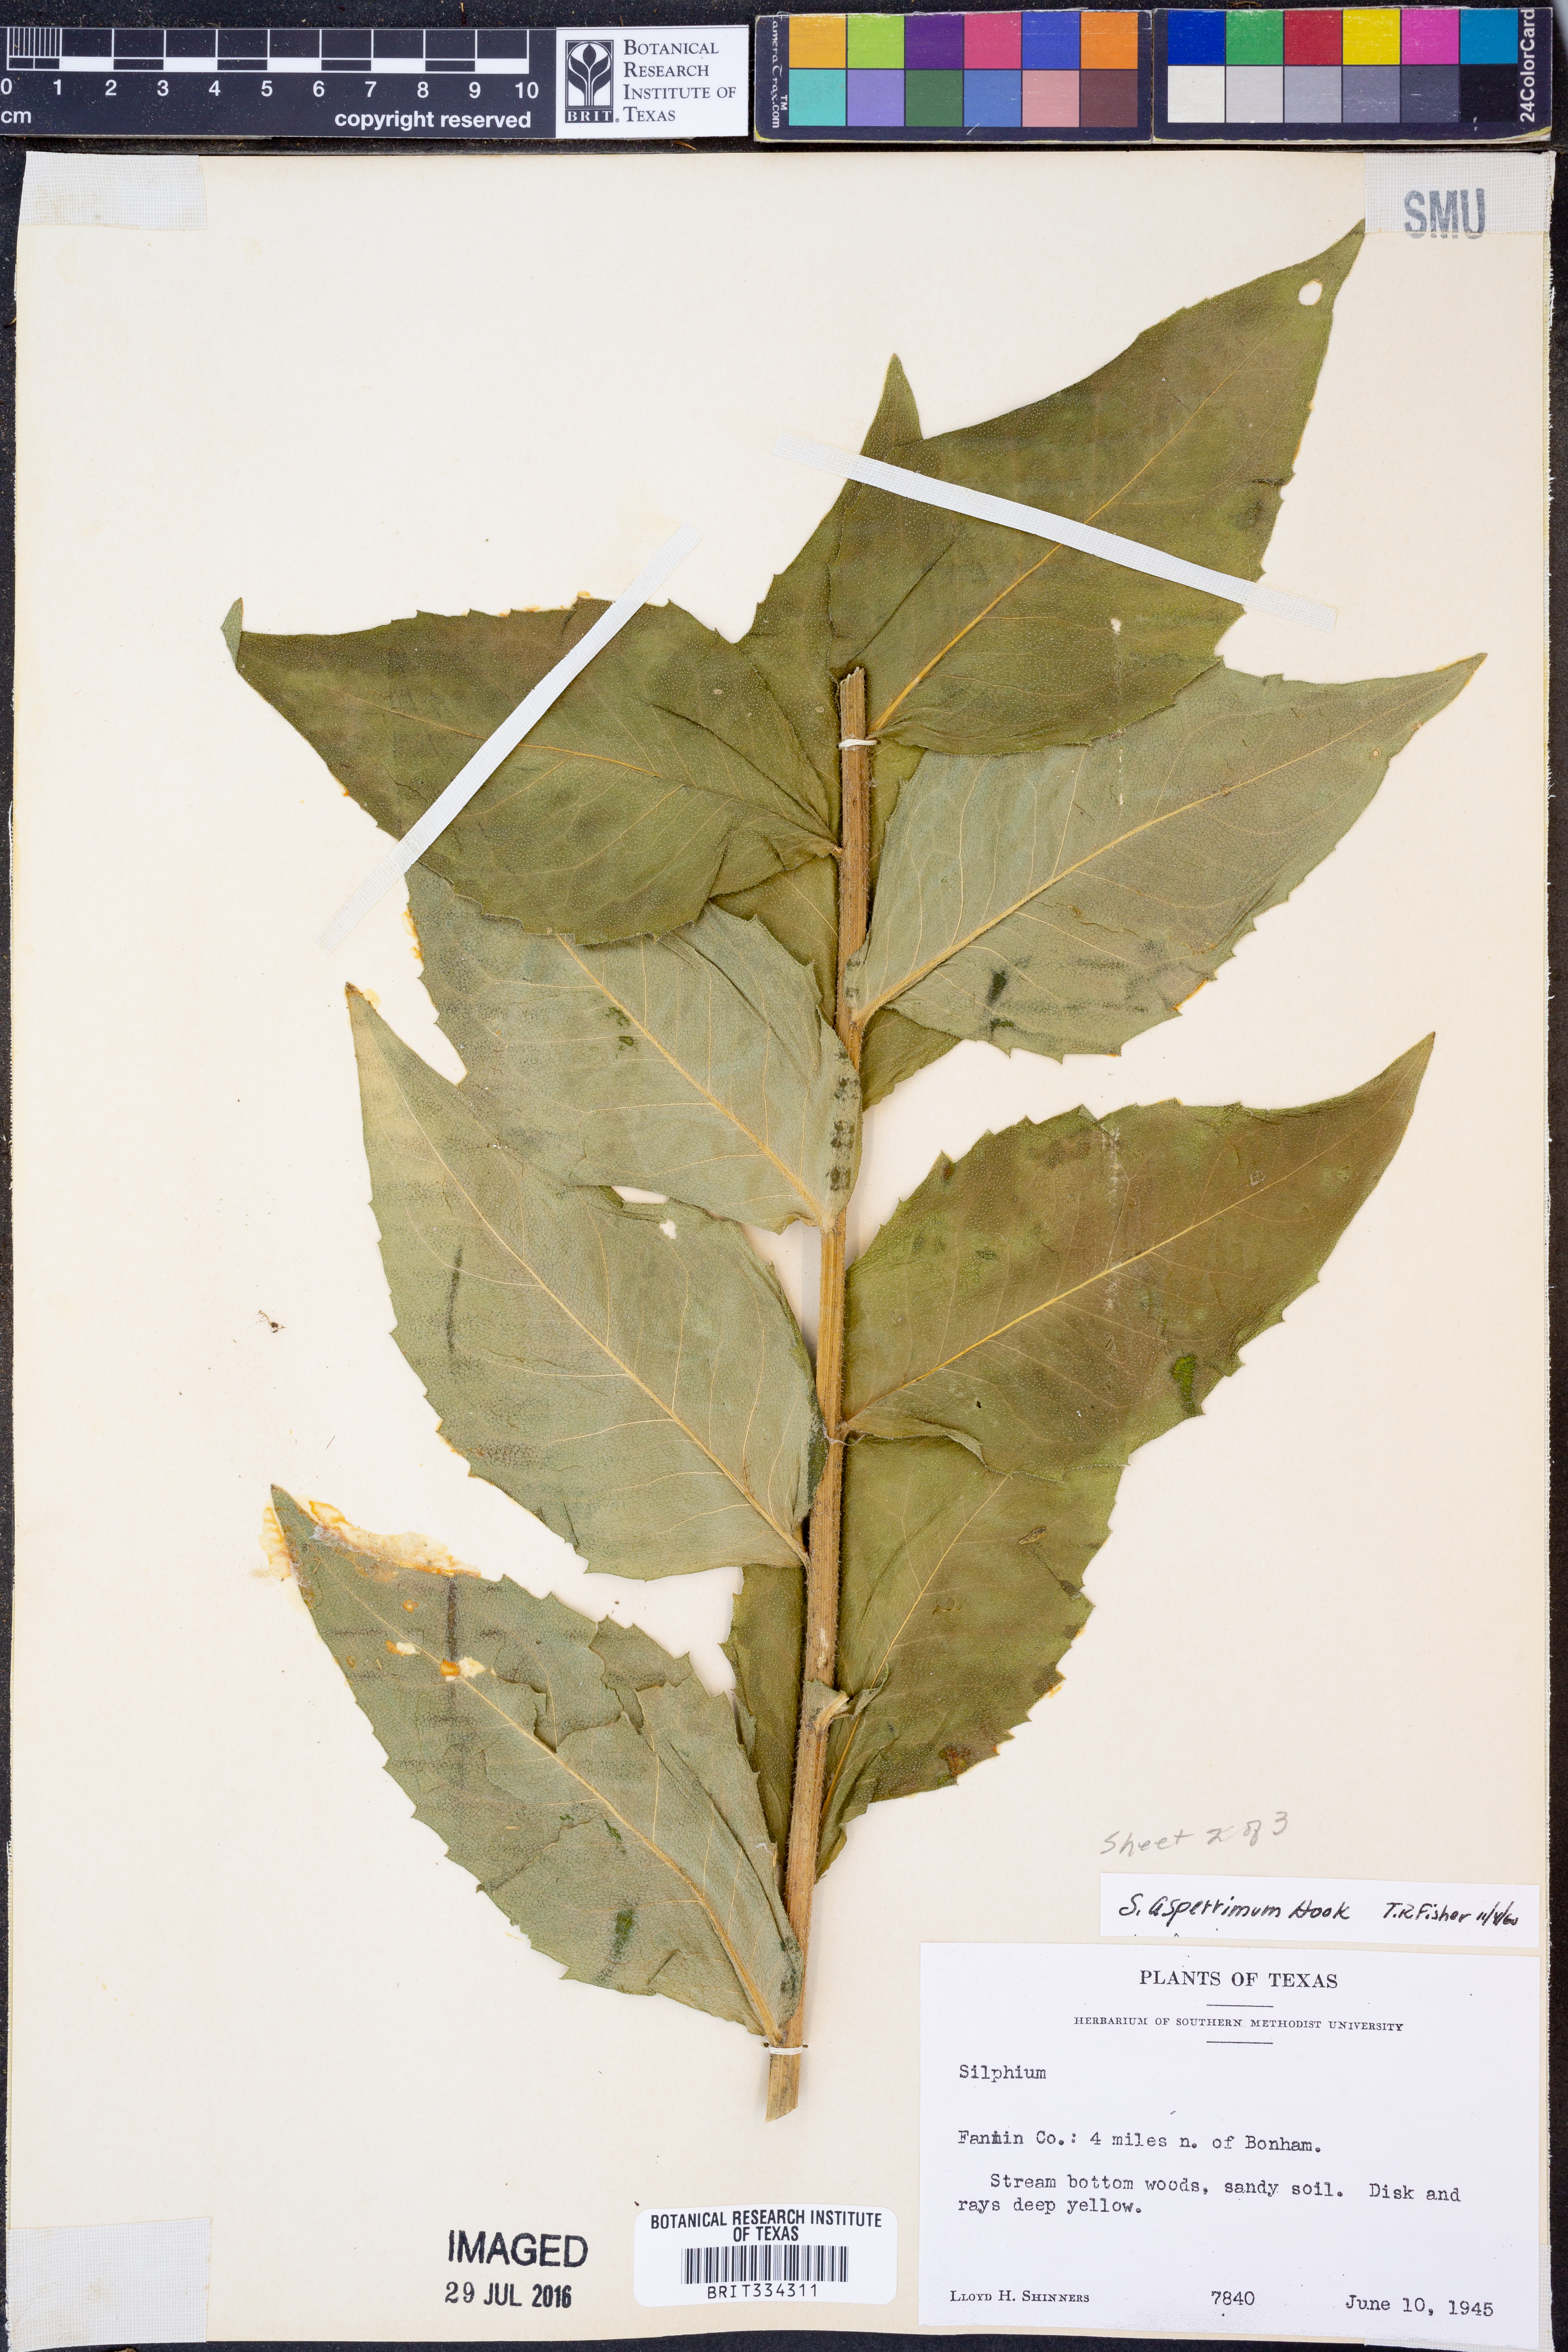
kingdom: Plantae
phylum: Tracheophyta
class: Magnoliopsida
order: Asterales
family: Asteraceae
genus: Silphium
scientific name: Silphium asperrimum
